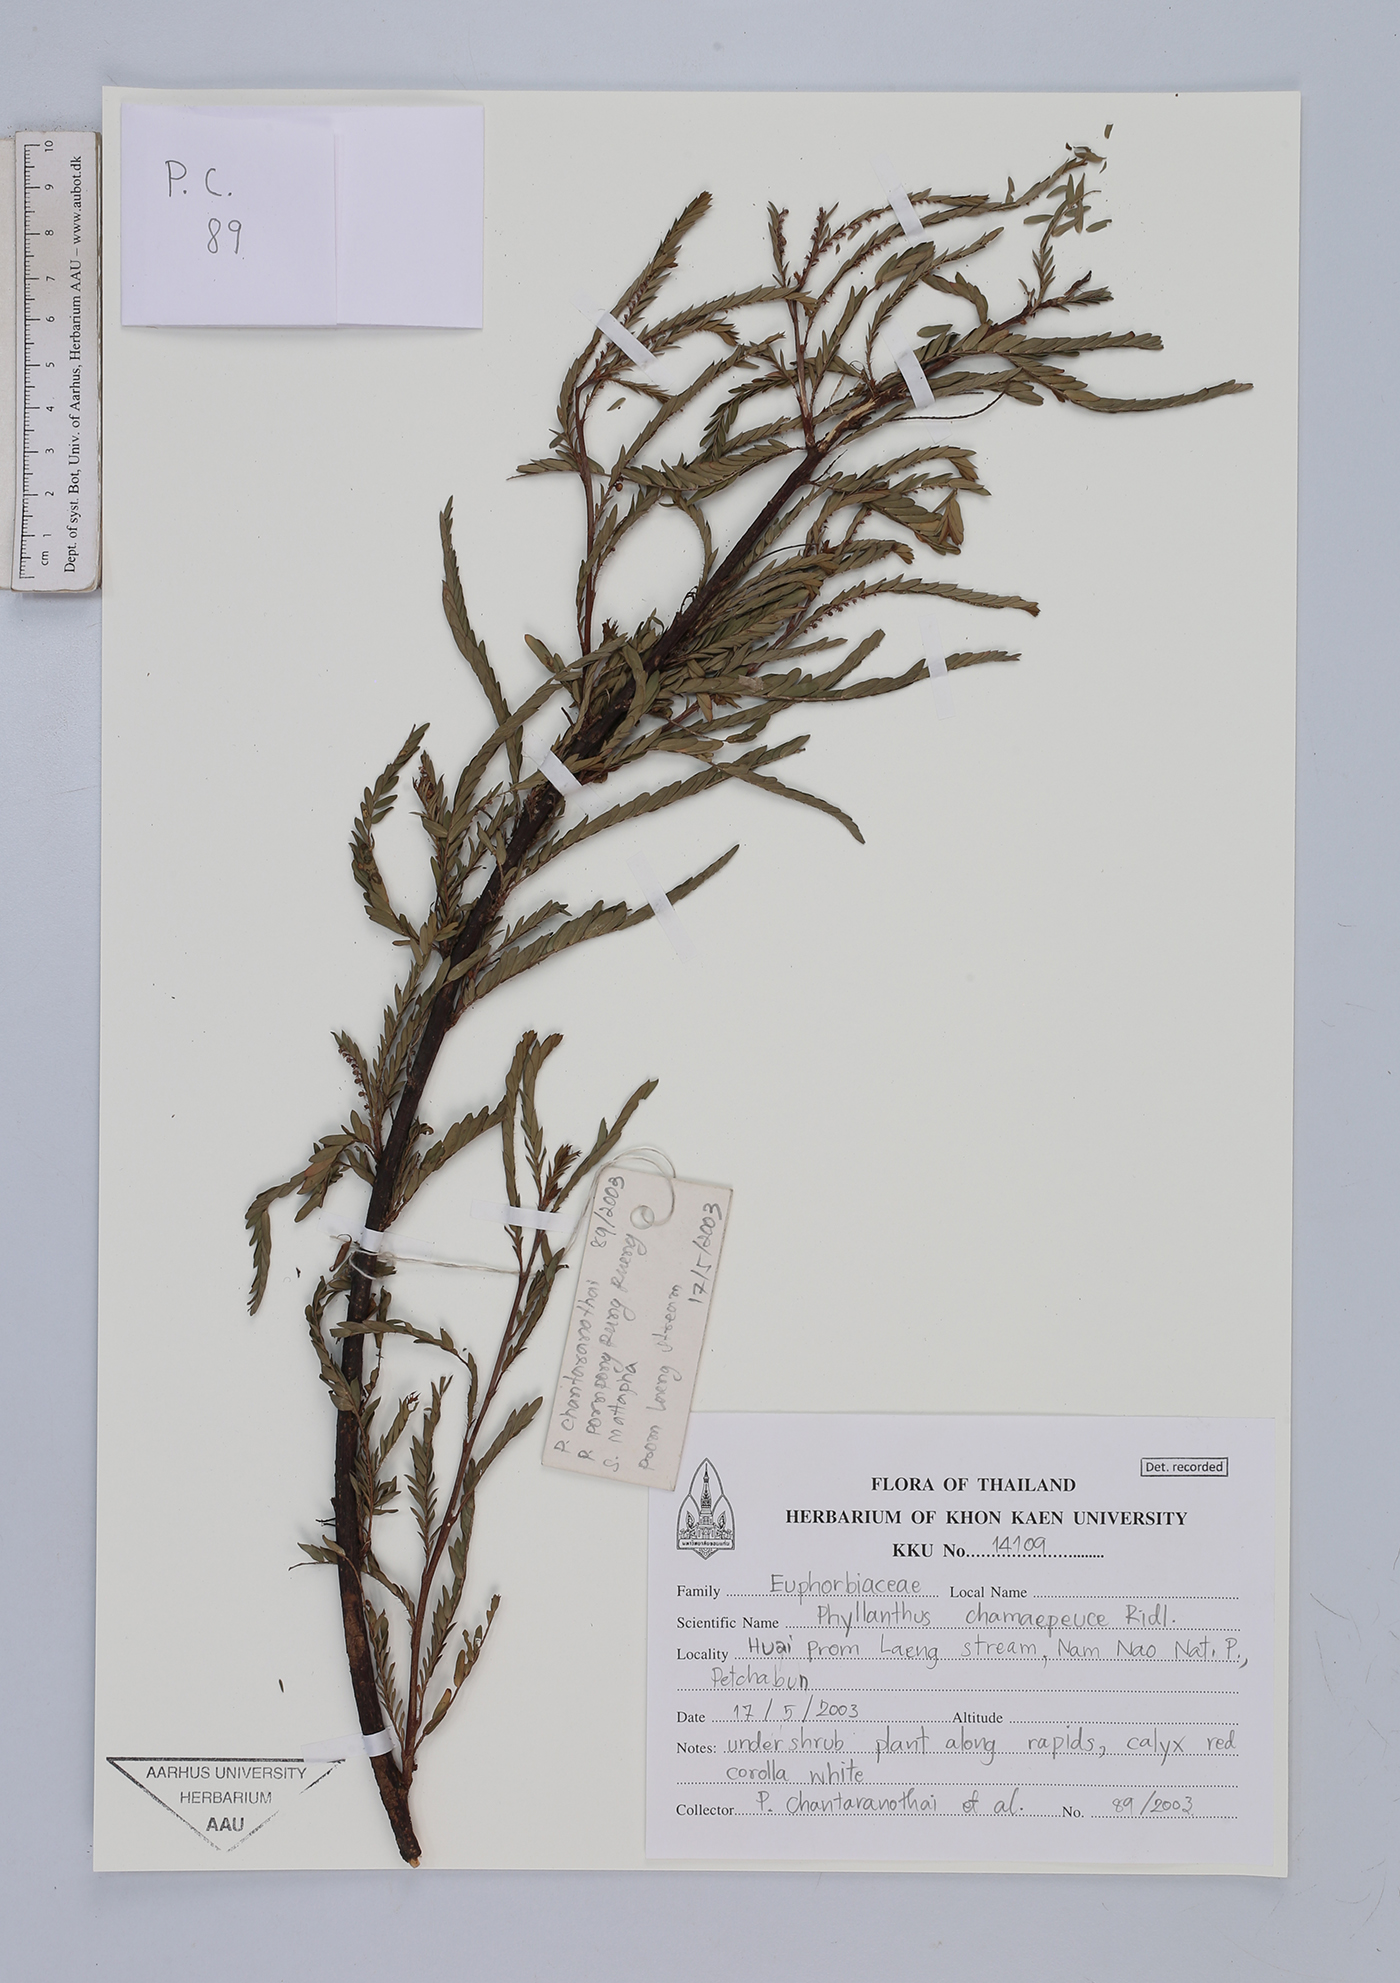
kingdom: Plantae
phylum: Tracheophyta
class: Magnoliopsida
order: Malpighiales
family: Phyllanthaceae
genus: Phyllanthus
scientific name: Phyllanthus chamaepeuce
